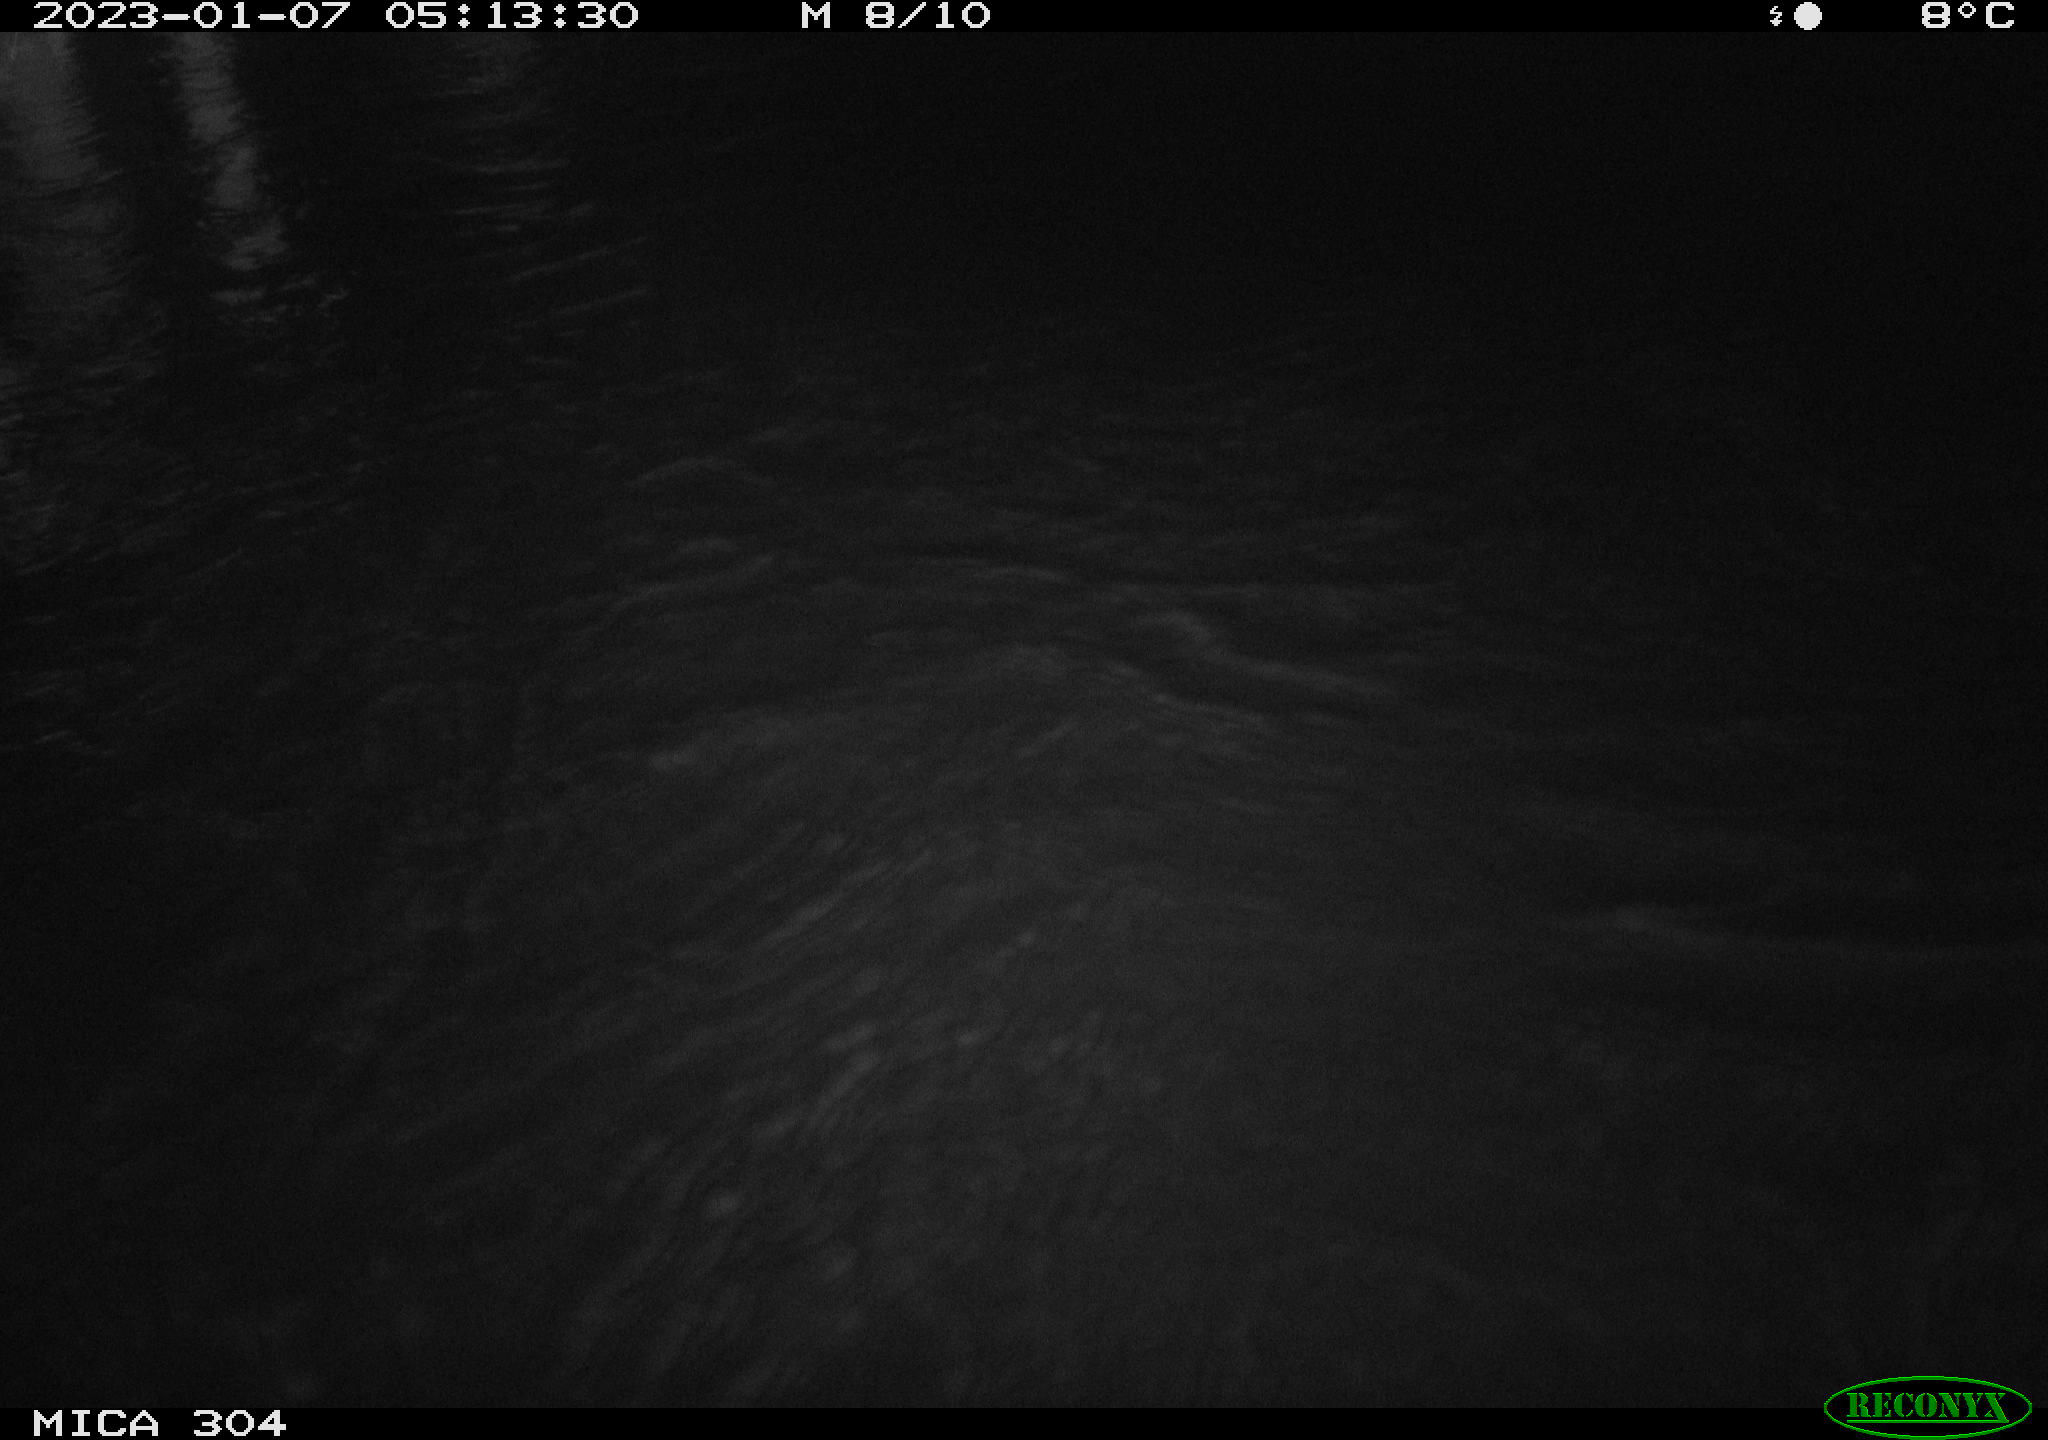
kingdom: Animalia
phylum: Chordata
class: Aves
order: Anseriformes
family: Anatidae
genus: Anas
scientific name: Anas
